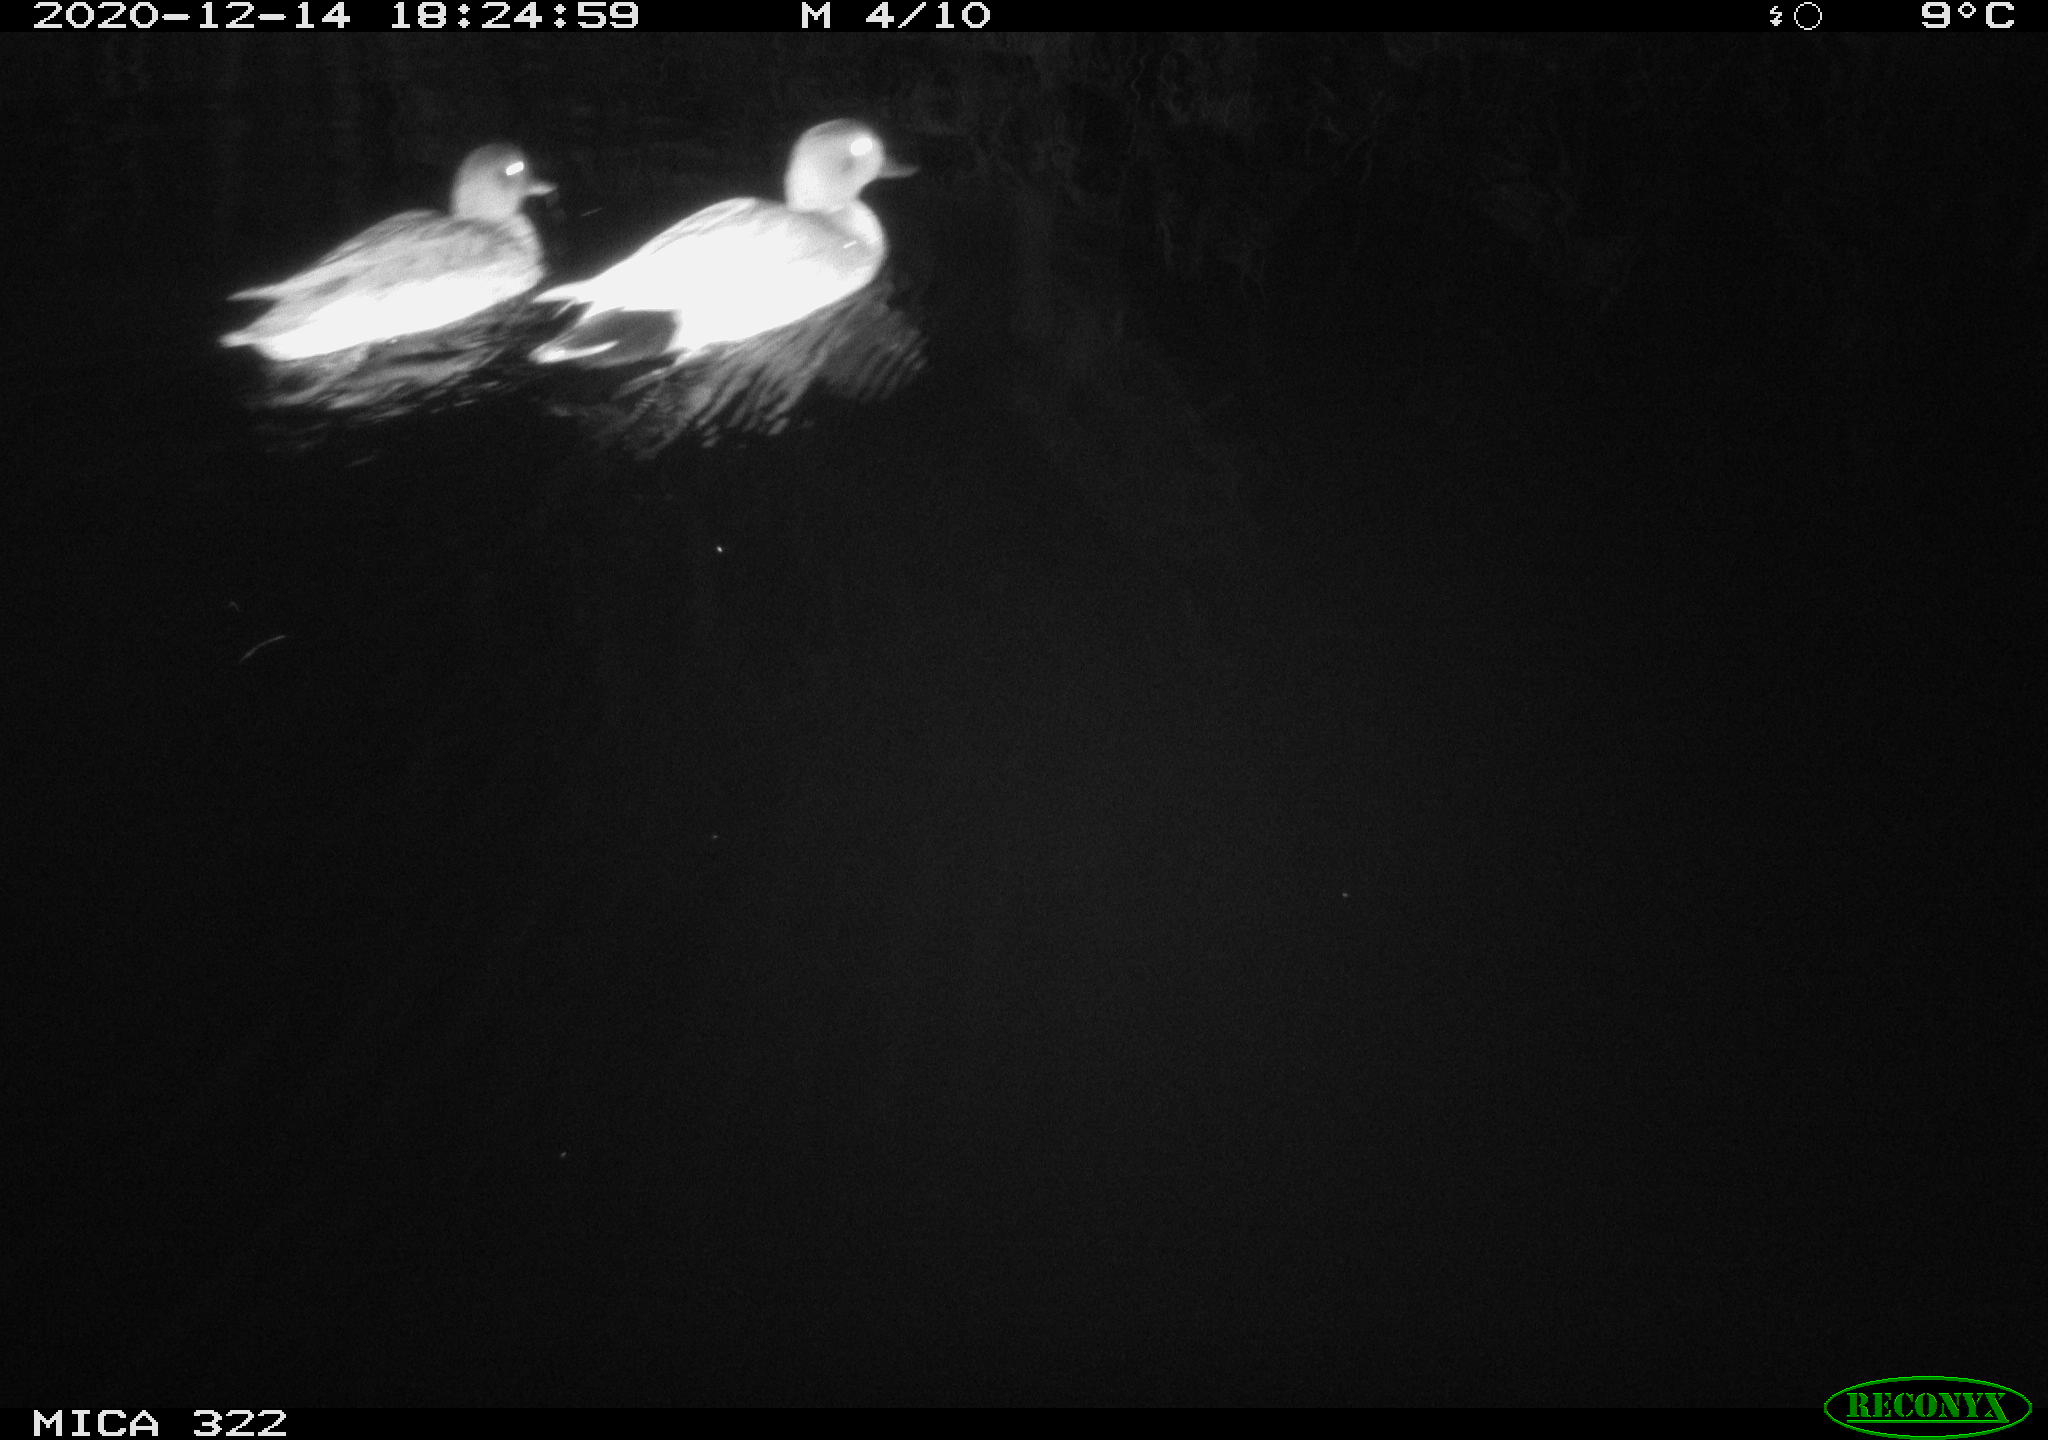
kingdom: Animalia
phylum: Chordata
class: Aves
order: Anseriformes
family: Anatidae
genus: Mareca
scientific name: Mareca strepera
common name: Gadwall
